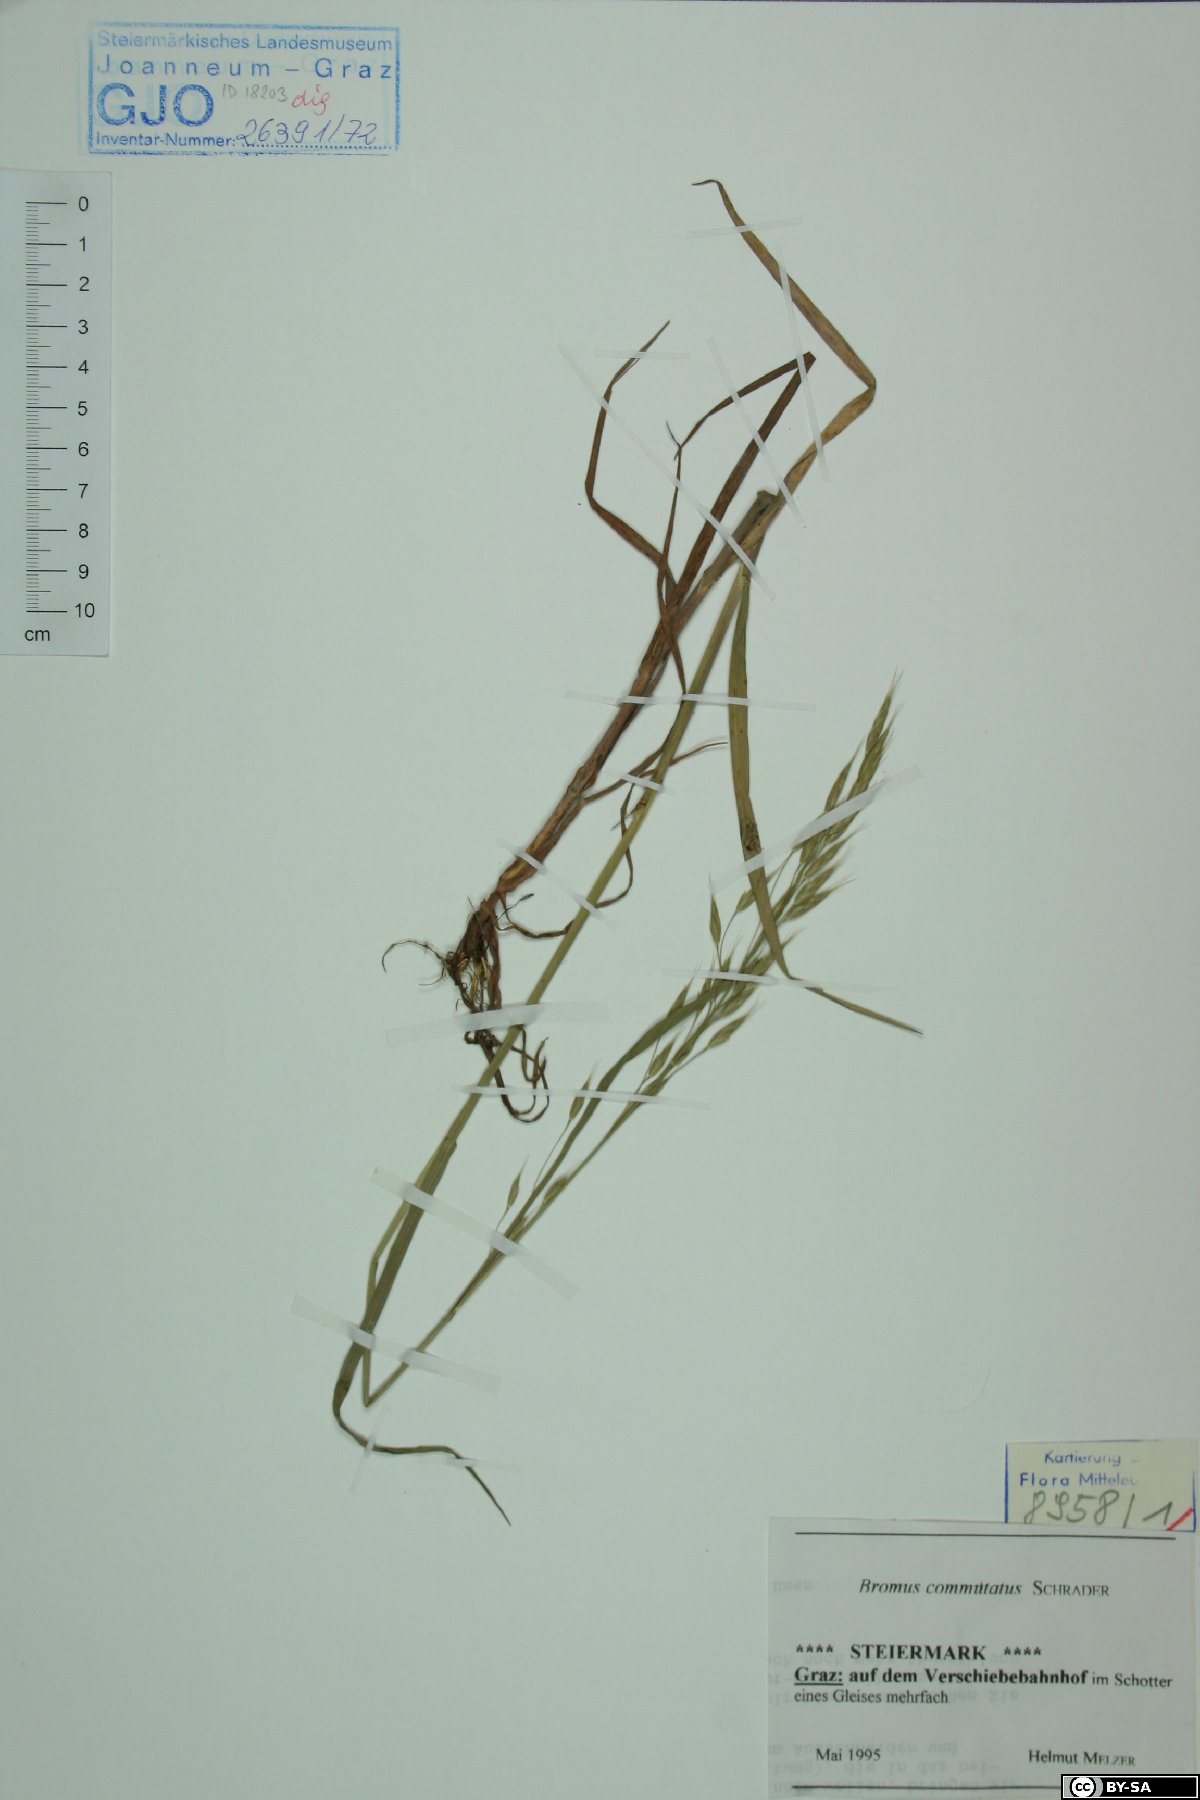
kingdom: Plantae
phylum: Tracheophyta
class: Liliopsida
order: Poales
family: Poaceae
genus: Bromus
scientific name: Bromus commutatus
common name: Meadow brome
